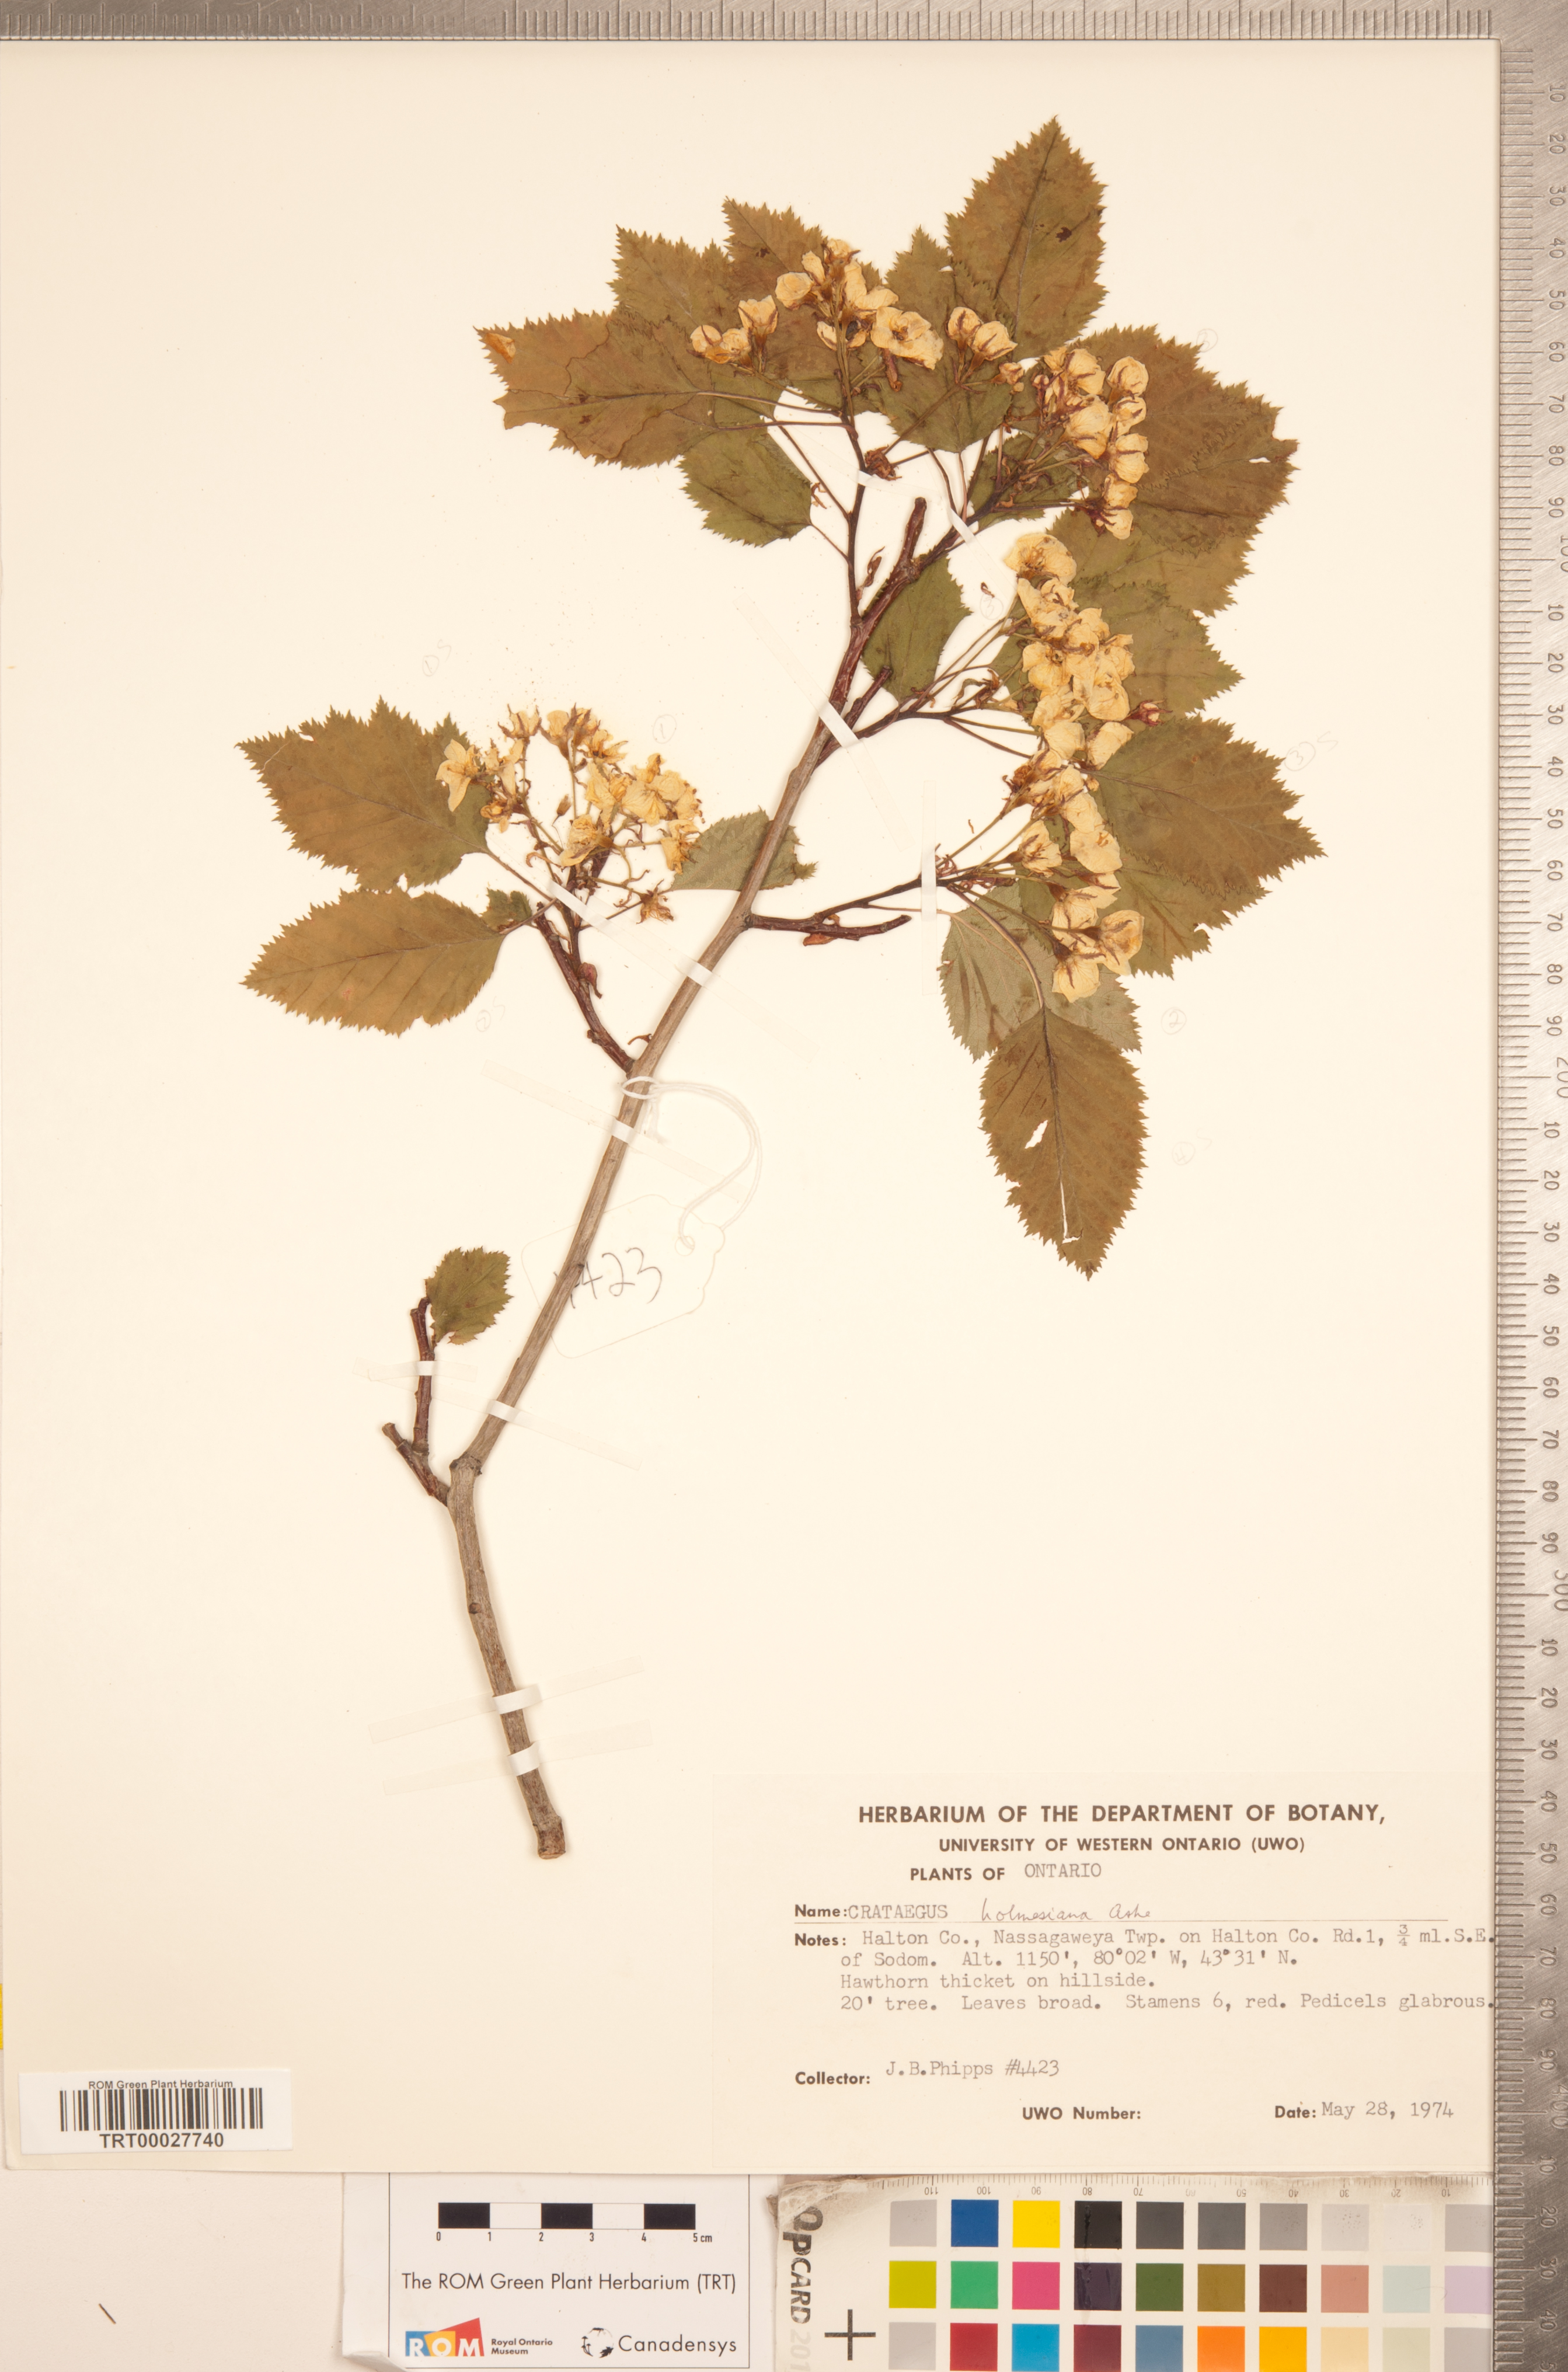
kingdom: Plantae
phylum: Tracheophyta
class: Magnoliopsida
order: Rosales
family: Rosaceae
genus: Crataegus
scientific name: Crataegus holmesiana
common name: Holmes' hawthorn
